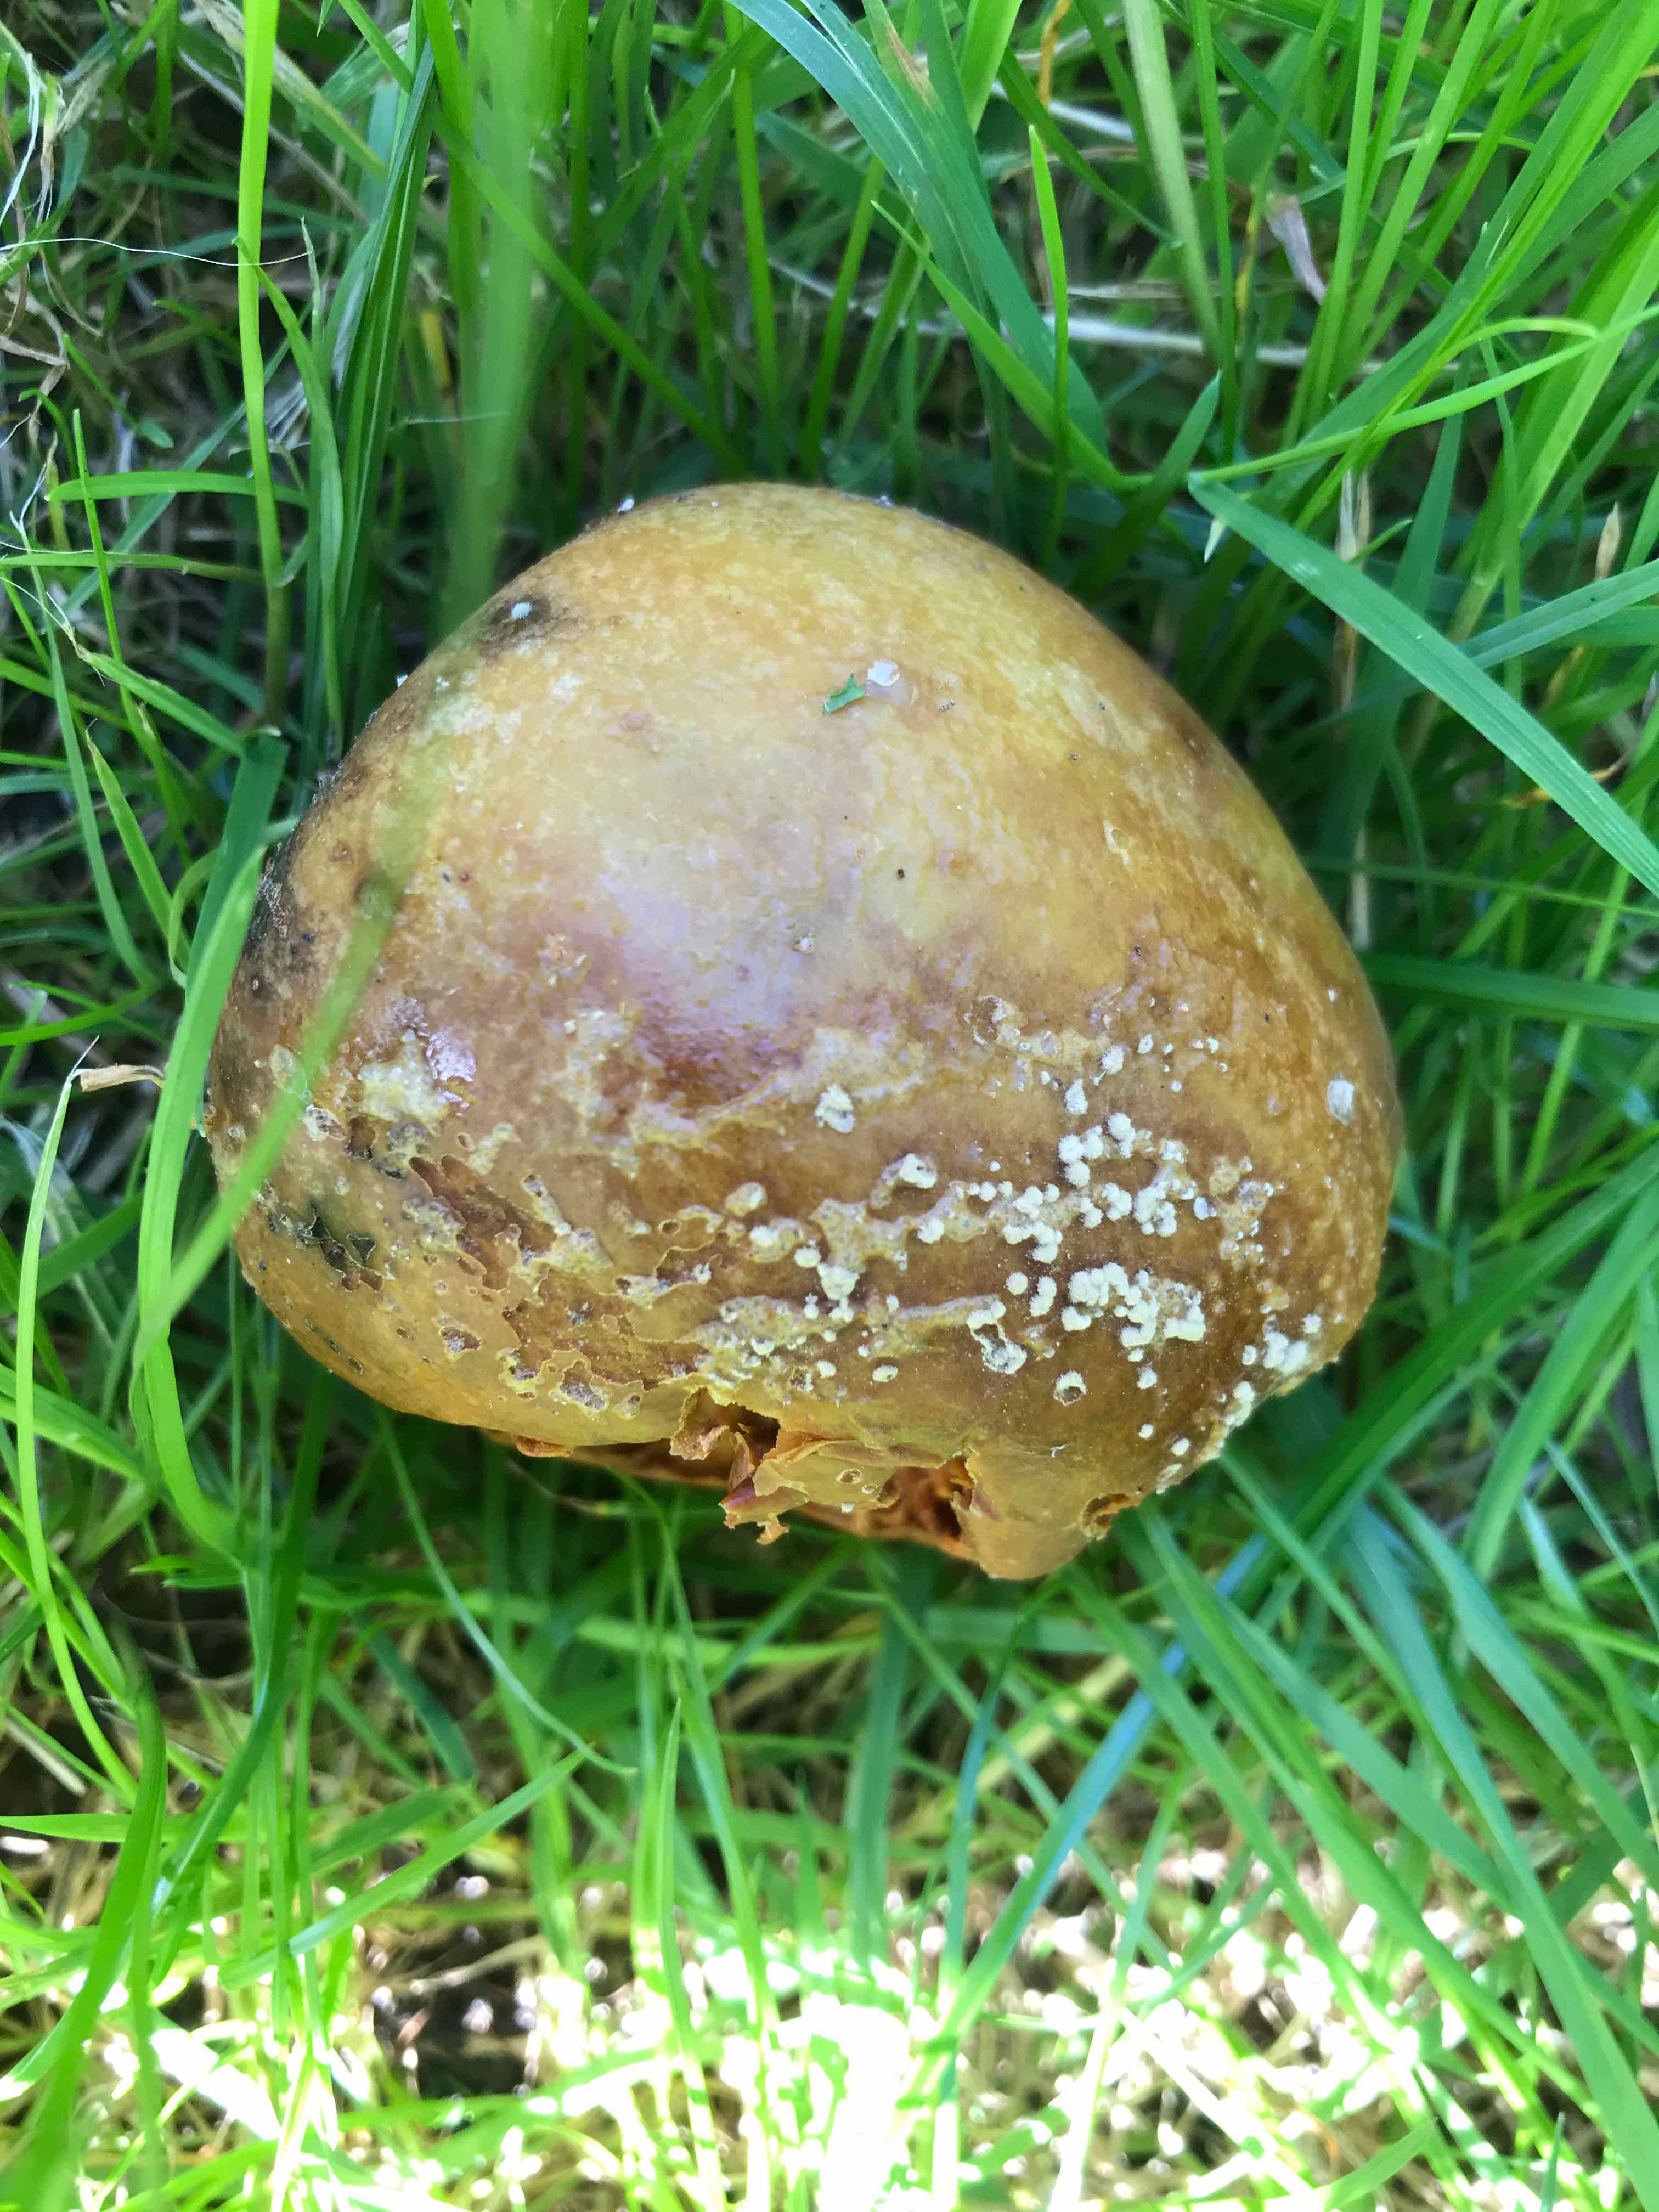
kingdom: Fungi
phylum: Ascomycota
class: Leotiomycetes
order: Helotiales
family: Sclerotiniaceae
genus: Monilinia
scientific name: Monilinia fructigena
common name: æble-knoldskive
